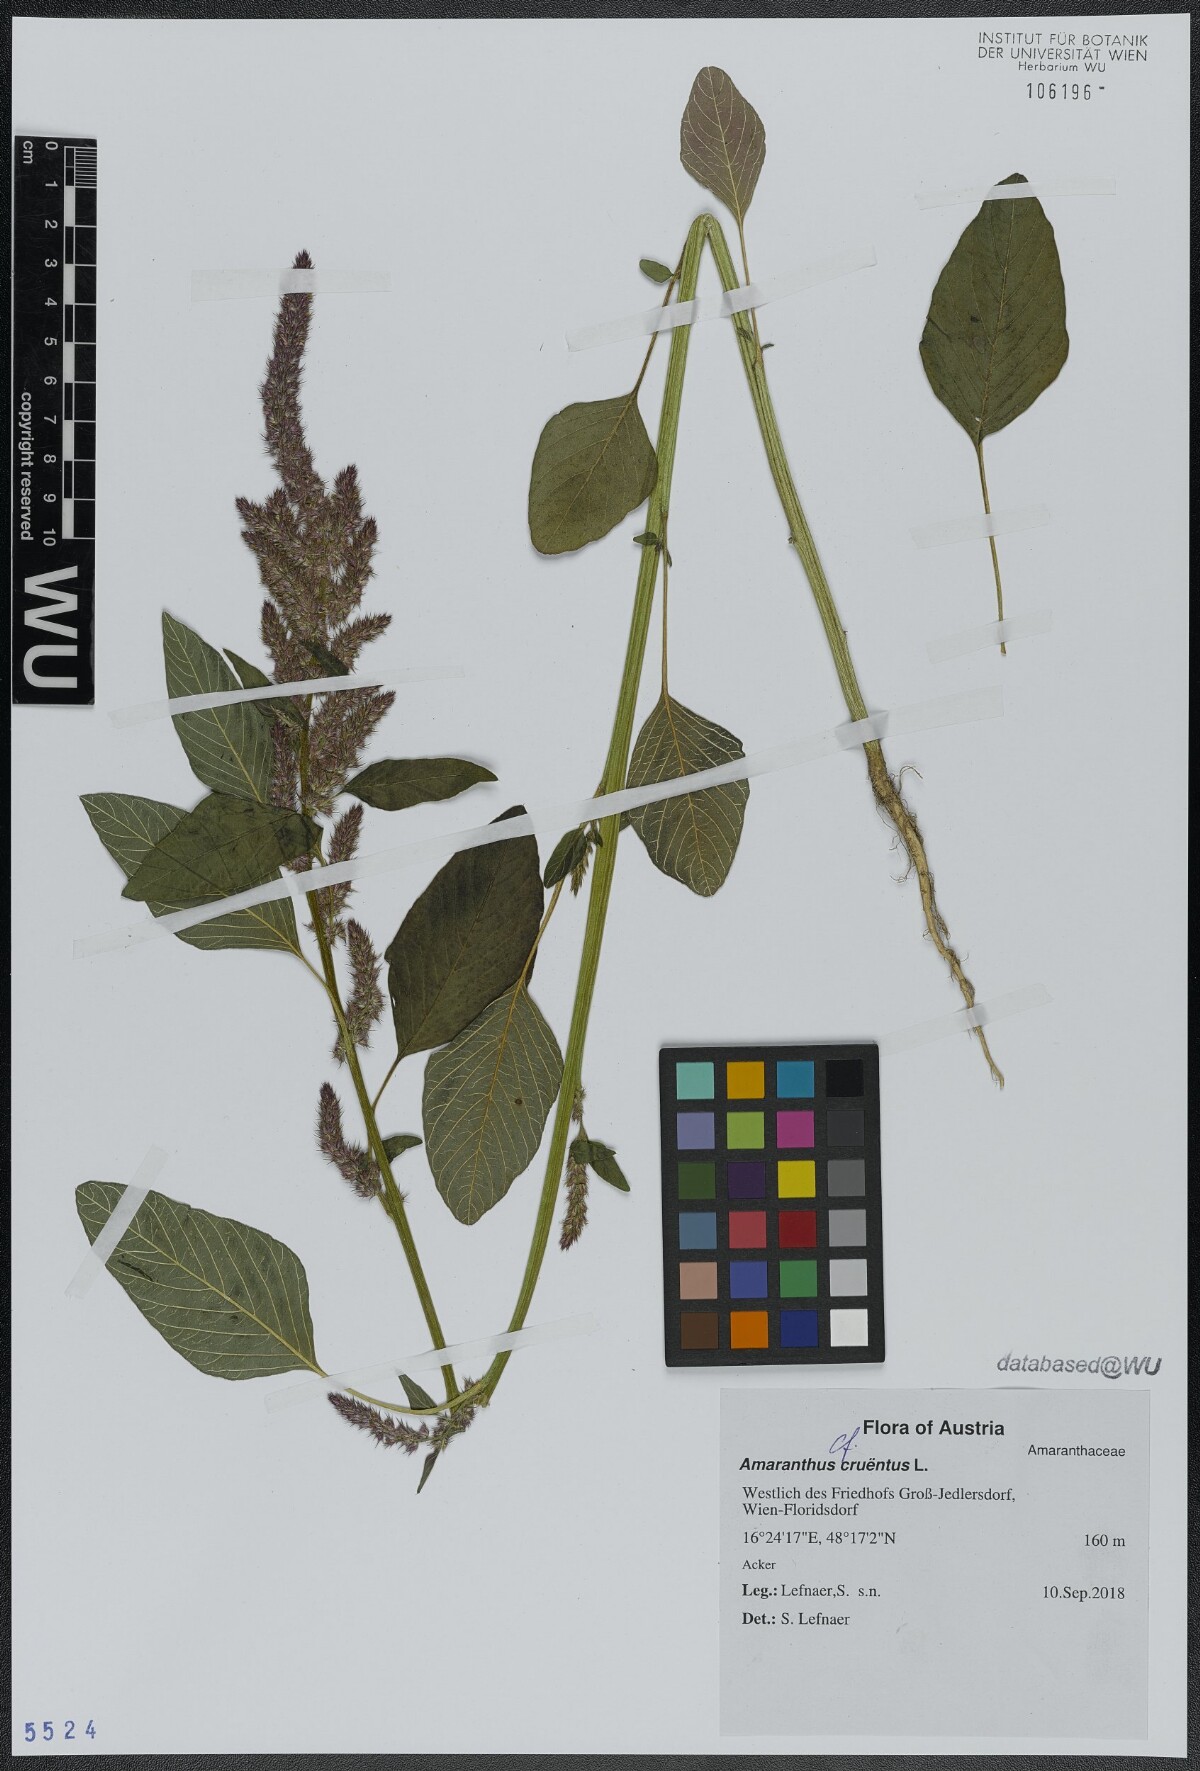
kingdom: Plantae
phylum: Tracheophyta
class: Magnoliopsida
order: Caryophyllales
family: Amaranthaceae
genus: Amaranthus
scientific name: Amaranthus cruentus
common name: Purple amaranth
